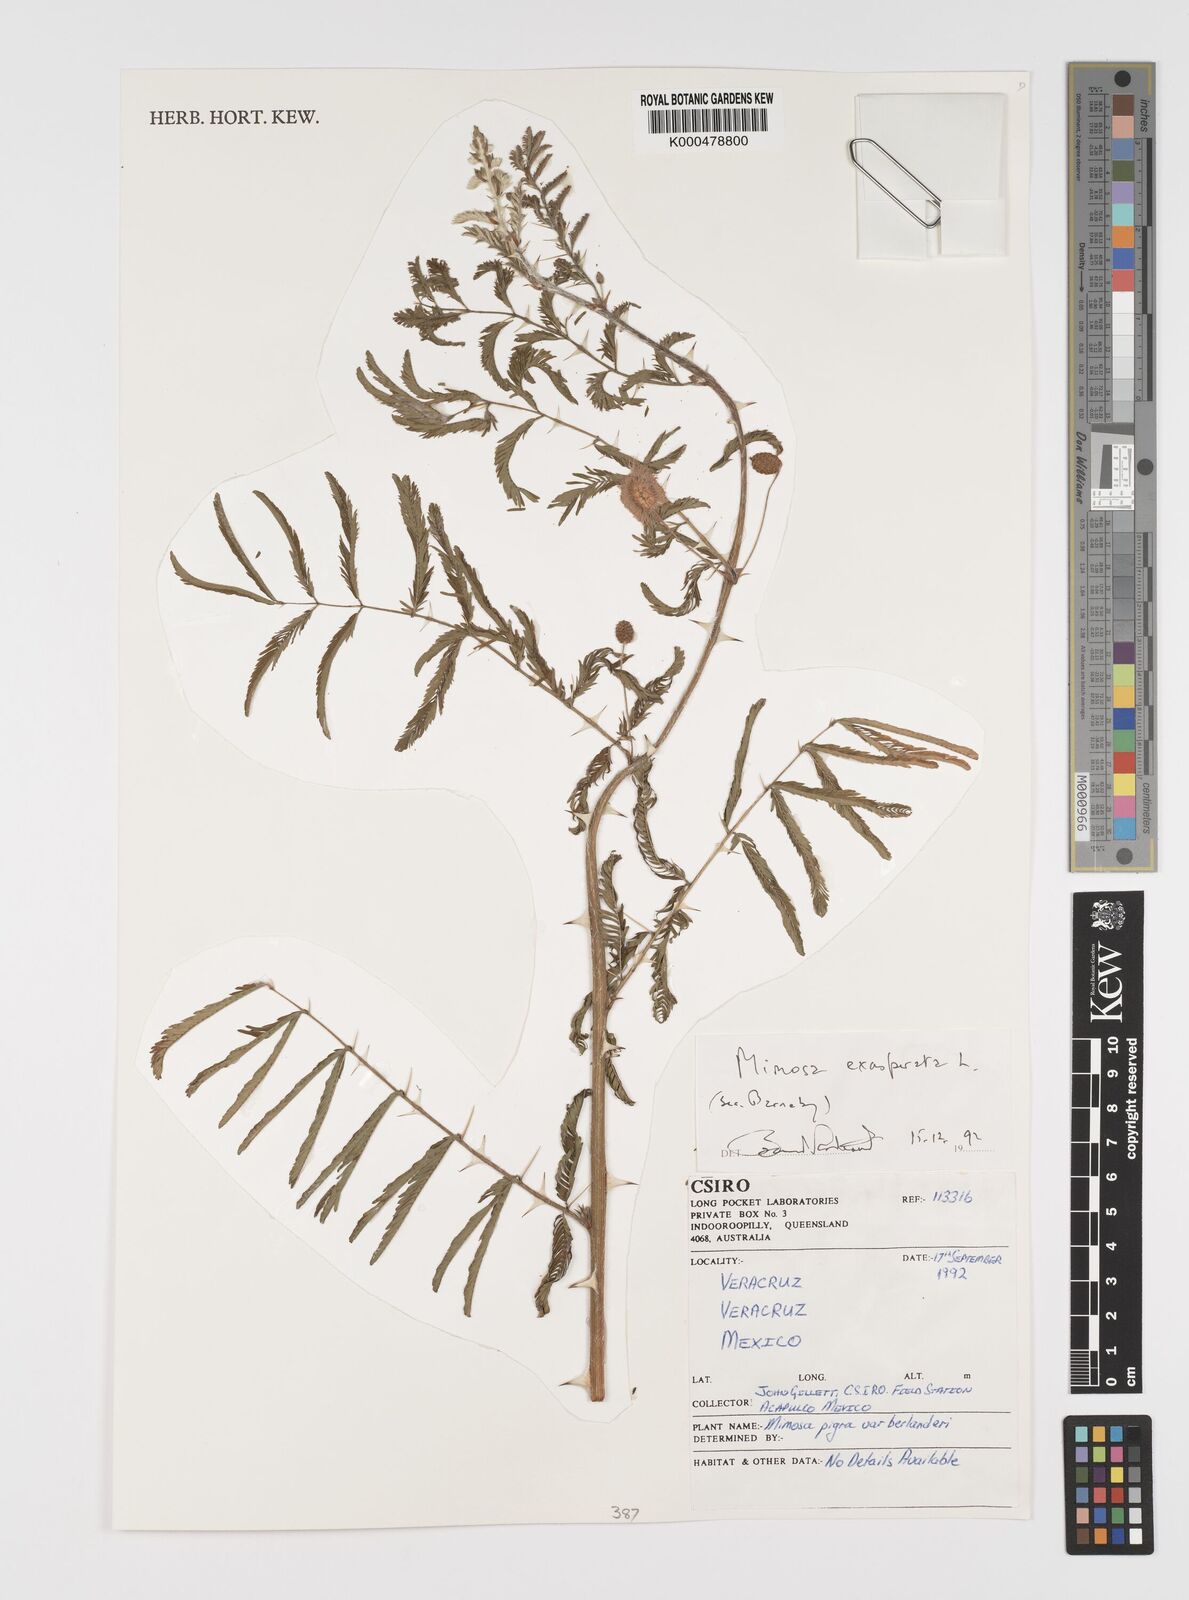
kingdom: Plantae
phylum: Tracheophyta
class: Magnoliopsida
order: Fabales
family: Fabaceae
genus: Mimosa
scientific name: Mimosa
